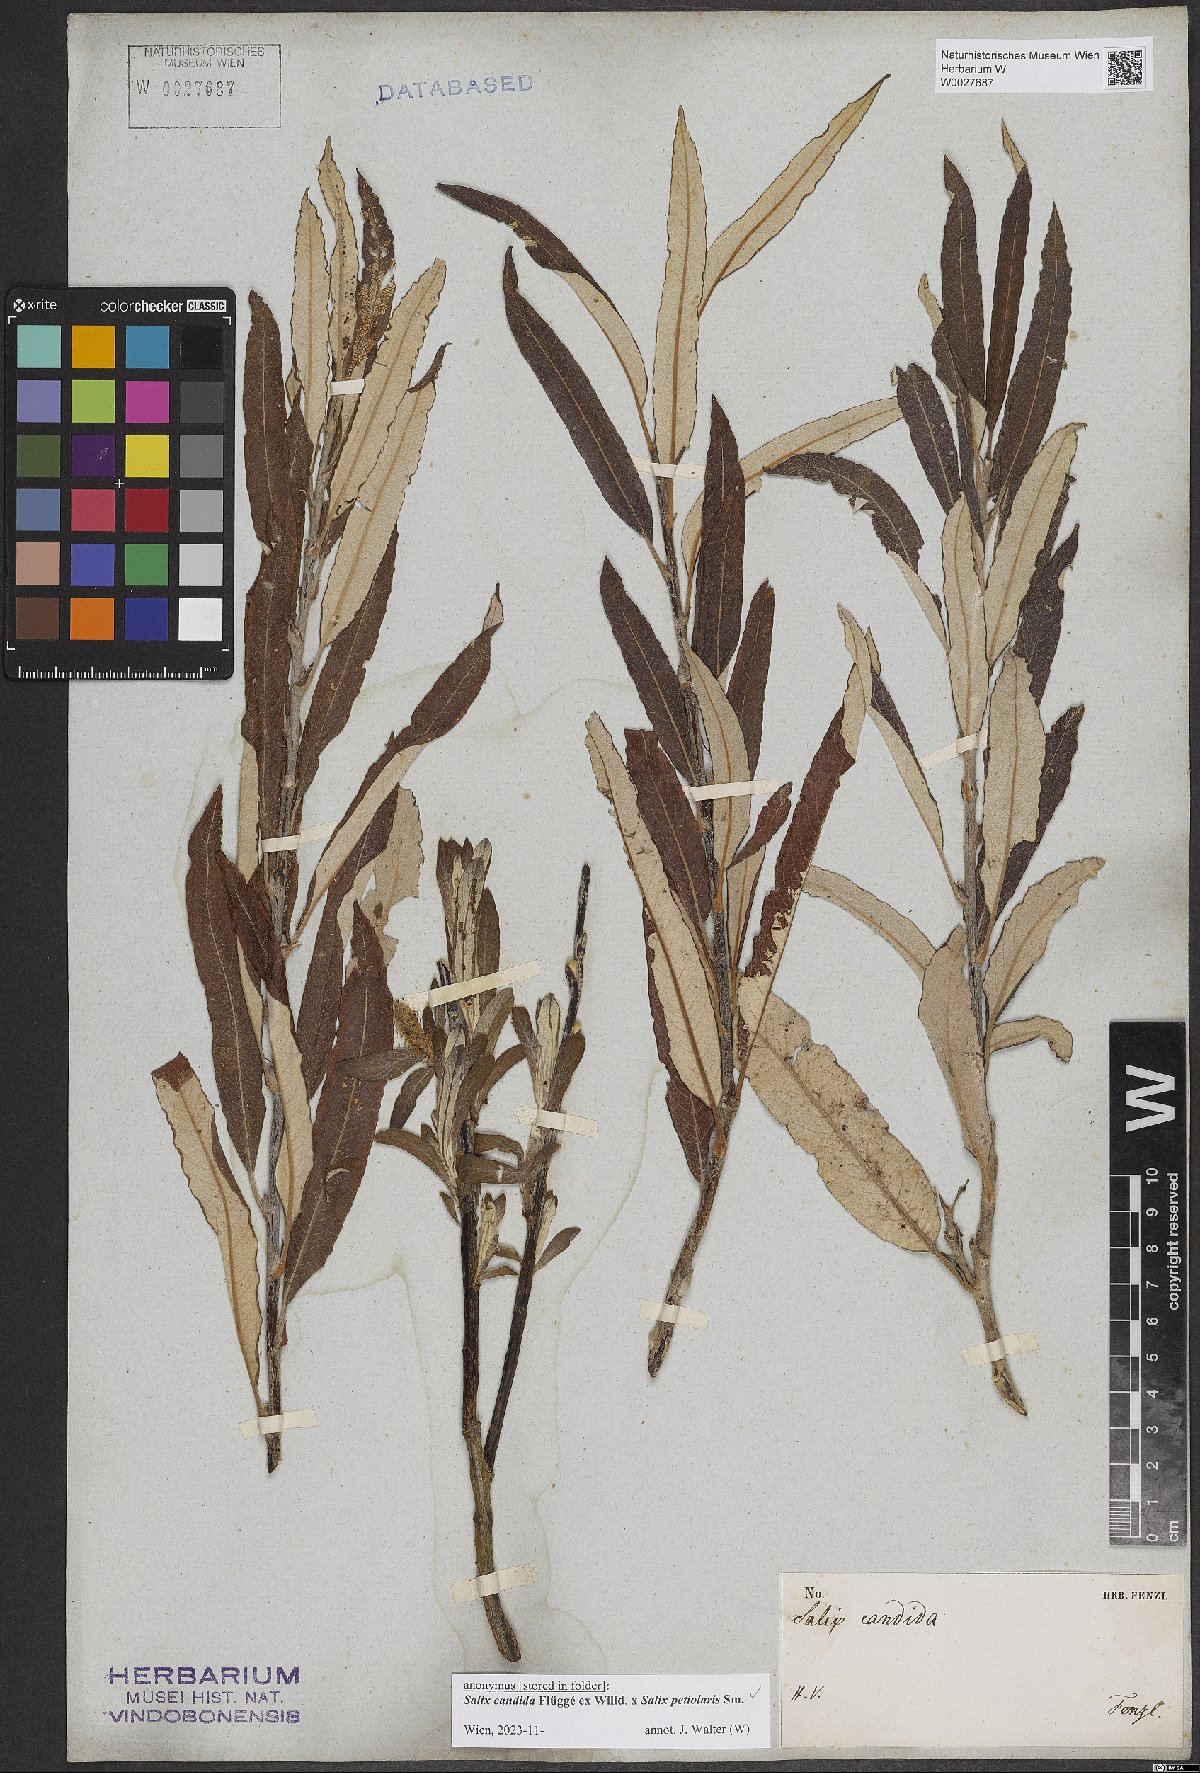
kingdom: Plantae
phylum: Tracheophyta
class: Magnoliopsida
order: Malpighiales
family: Salicaceae
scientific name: Salicaceae
